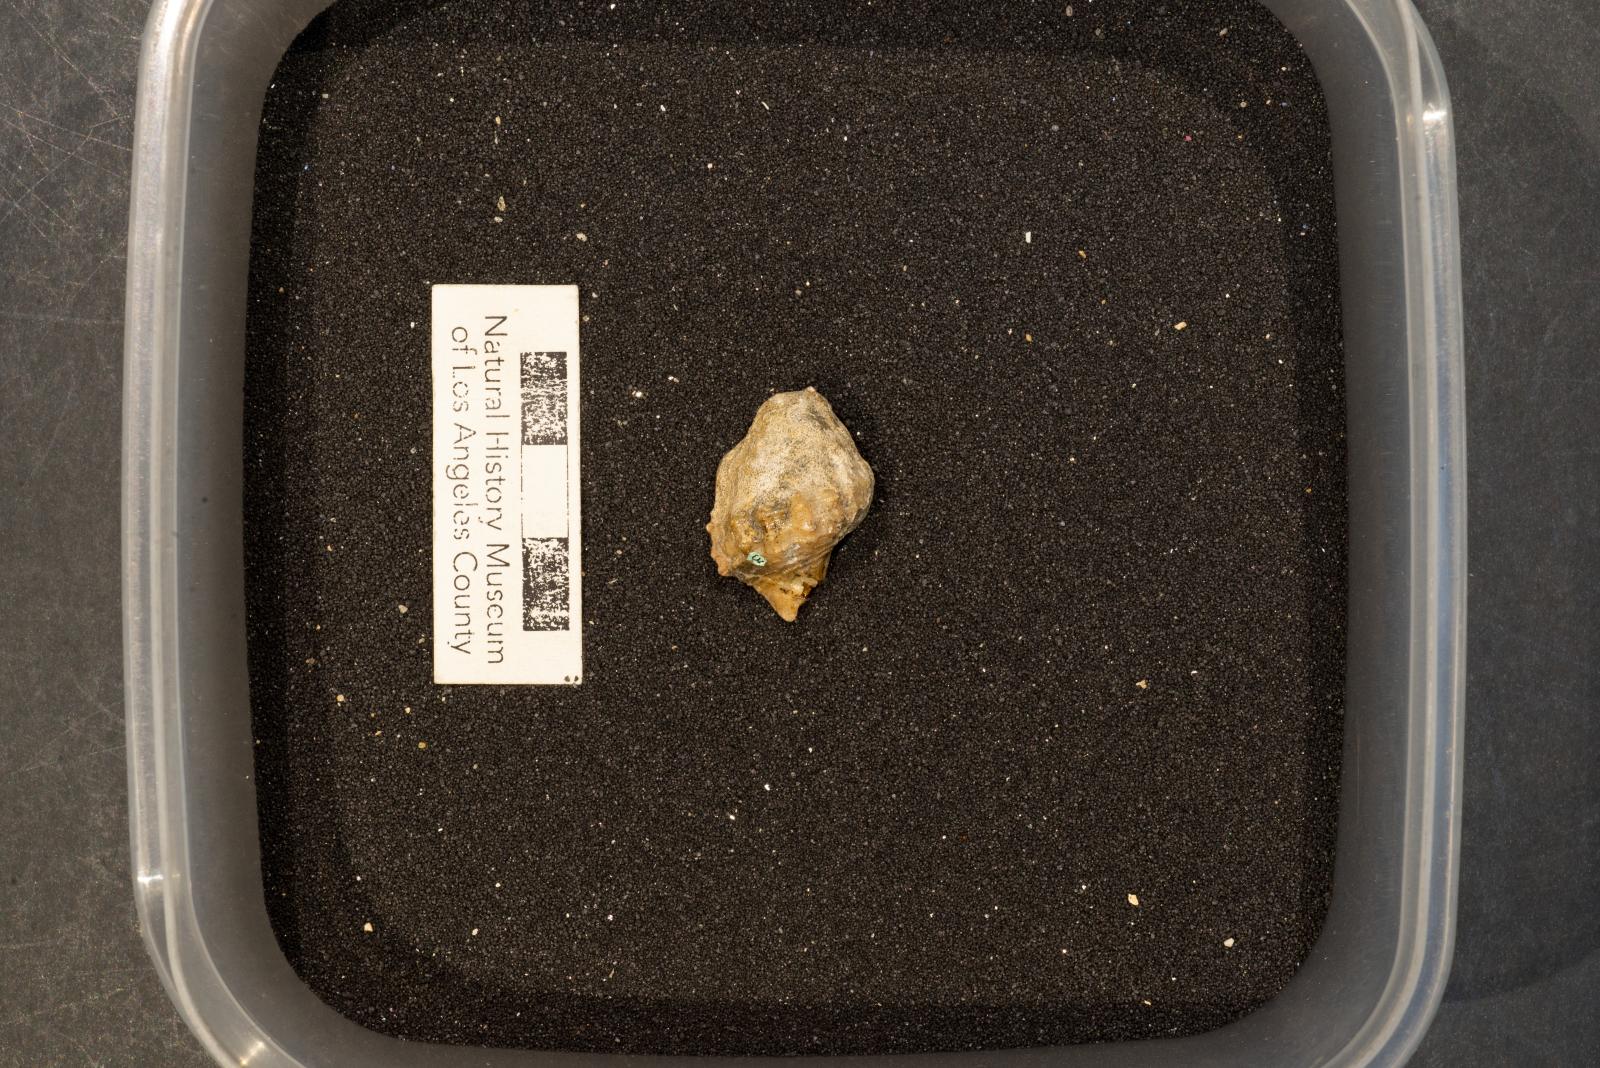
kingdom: Animalia
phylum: Mollusca
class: Gastropoda
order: Neogastropoda
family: Perissityidae
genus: Perissitys
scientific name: Perissitys elaphia
